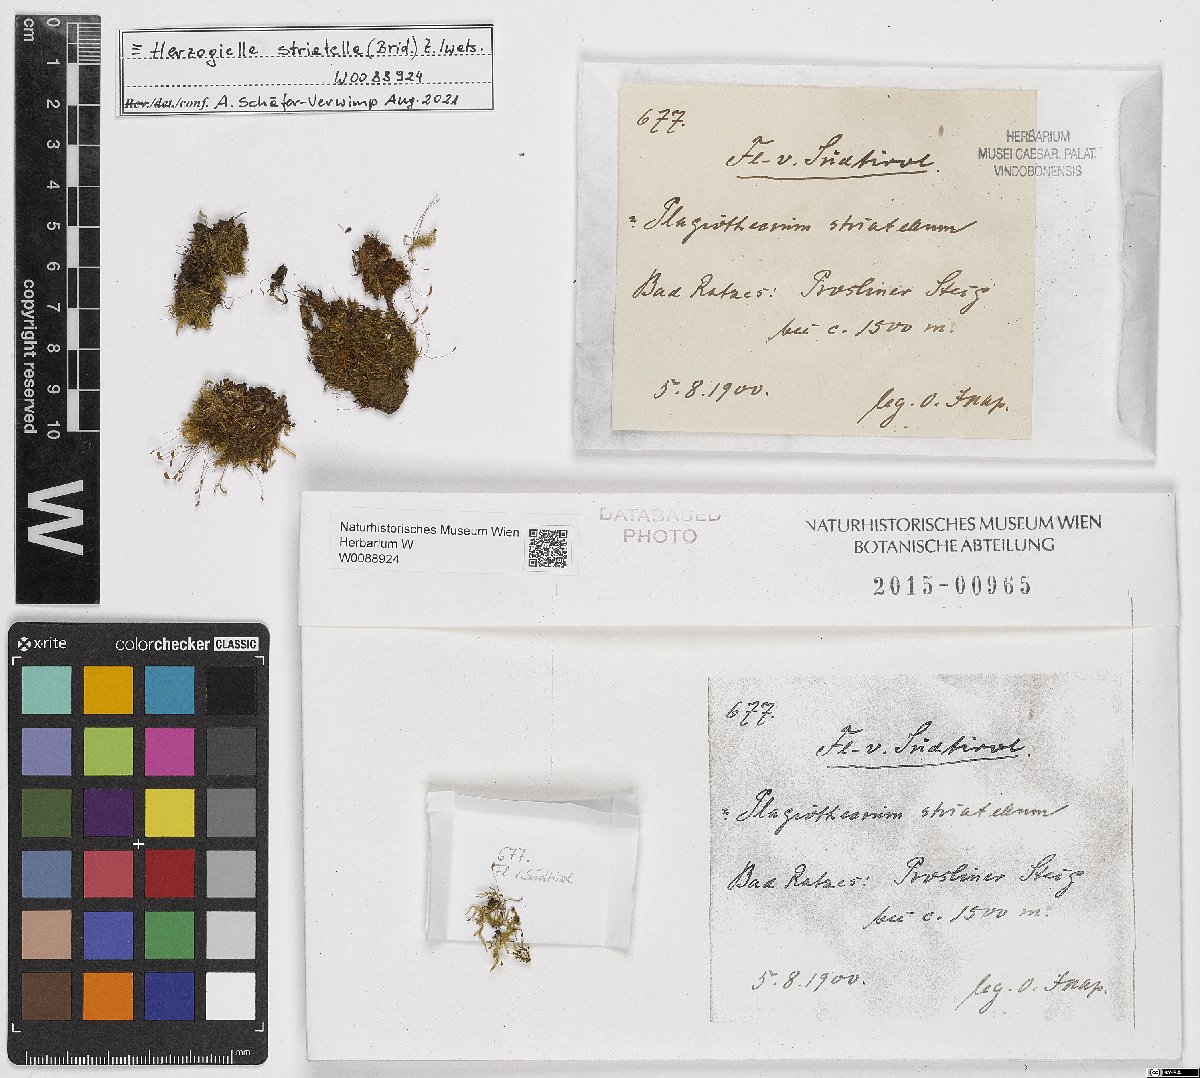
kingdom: Plantae
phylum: Bryophyta
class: Bryopsida
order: Hypnales
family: Plagiotheciaceae
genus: Herzogiella
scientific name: Herzogiella striatella
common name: Muhlenbeck's feather-moss
